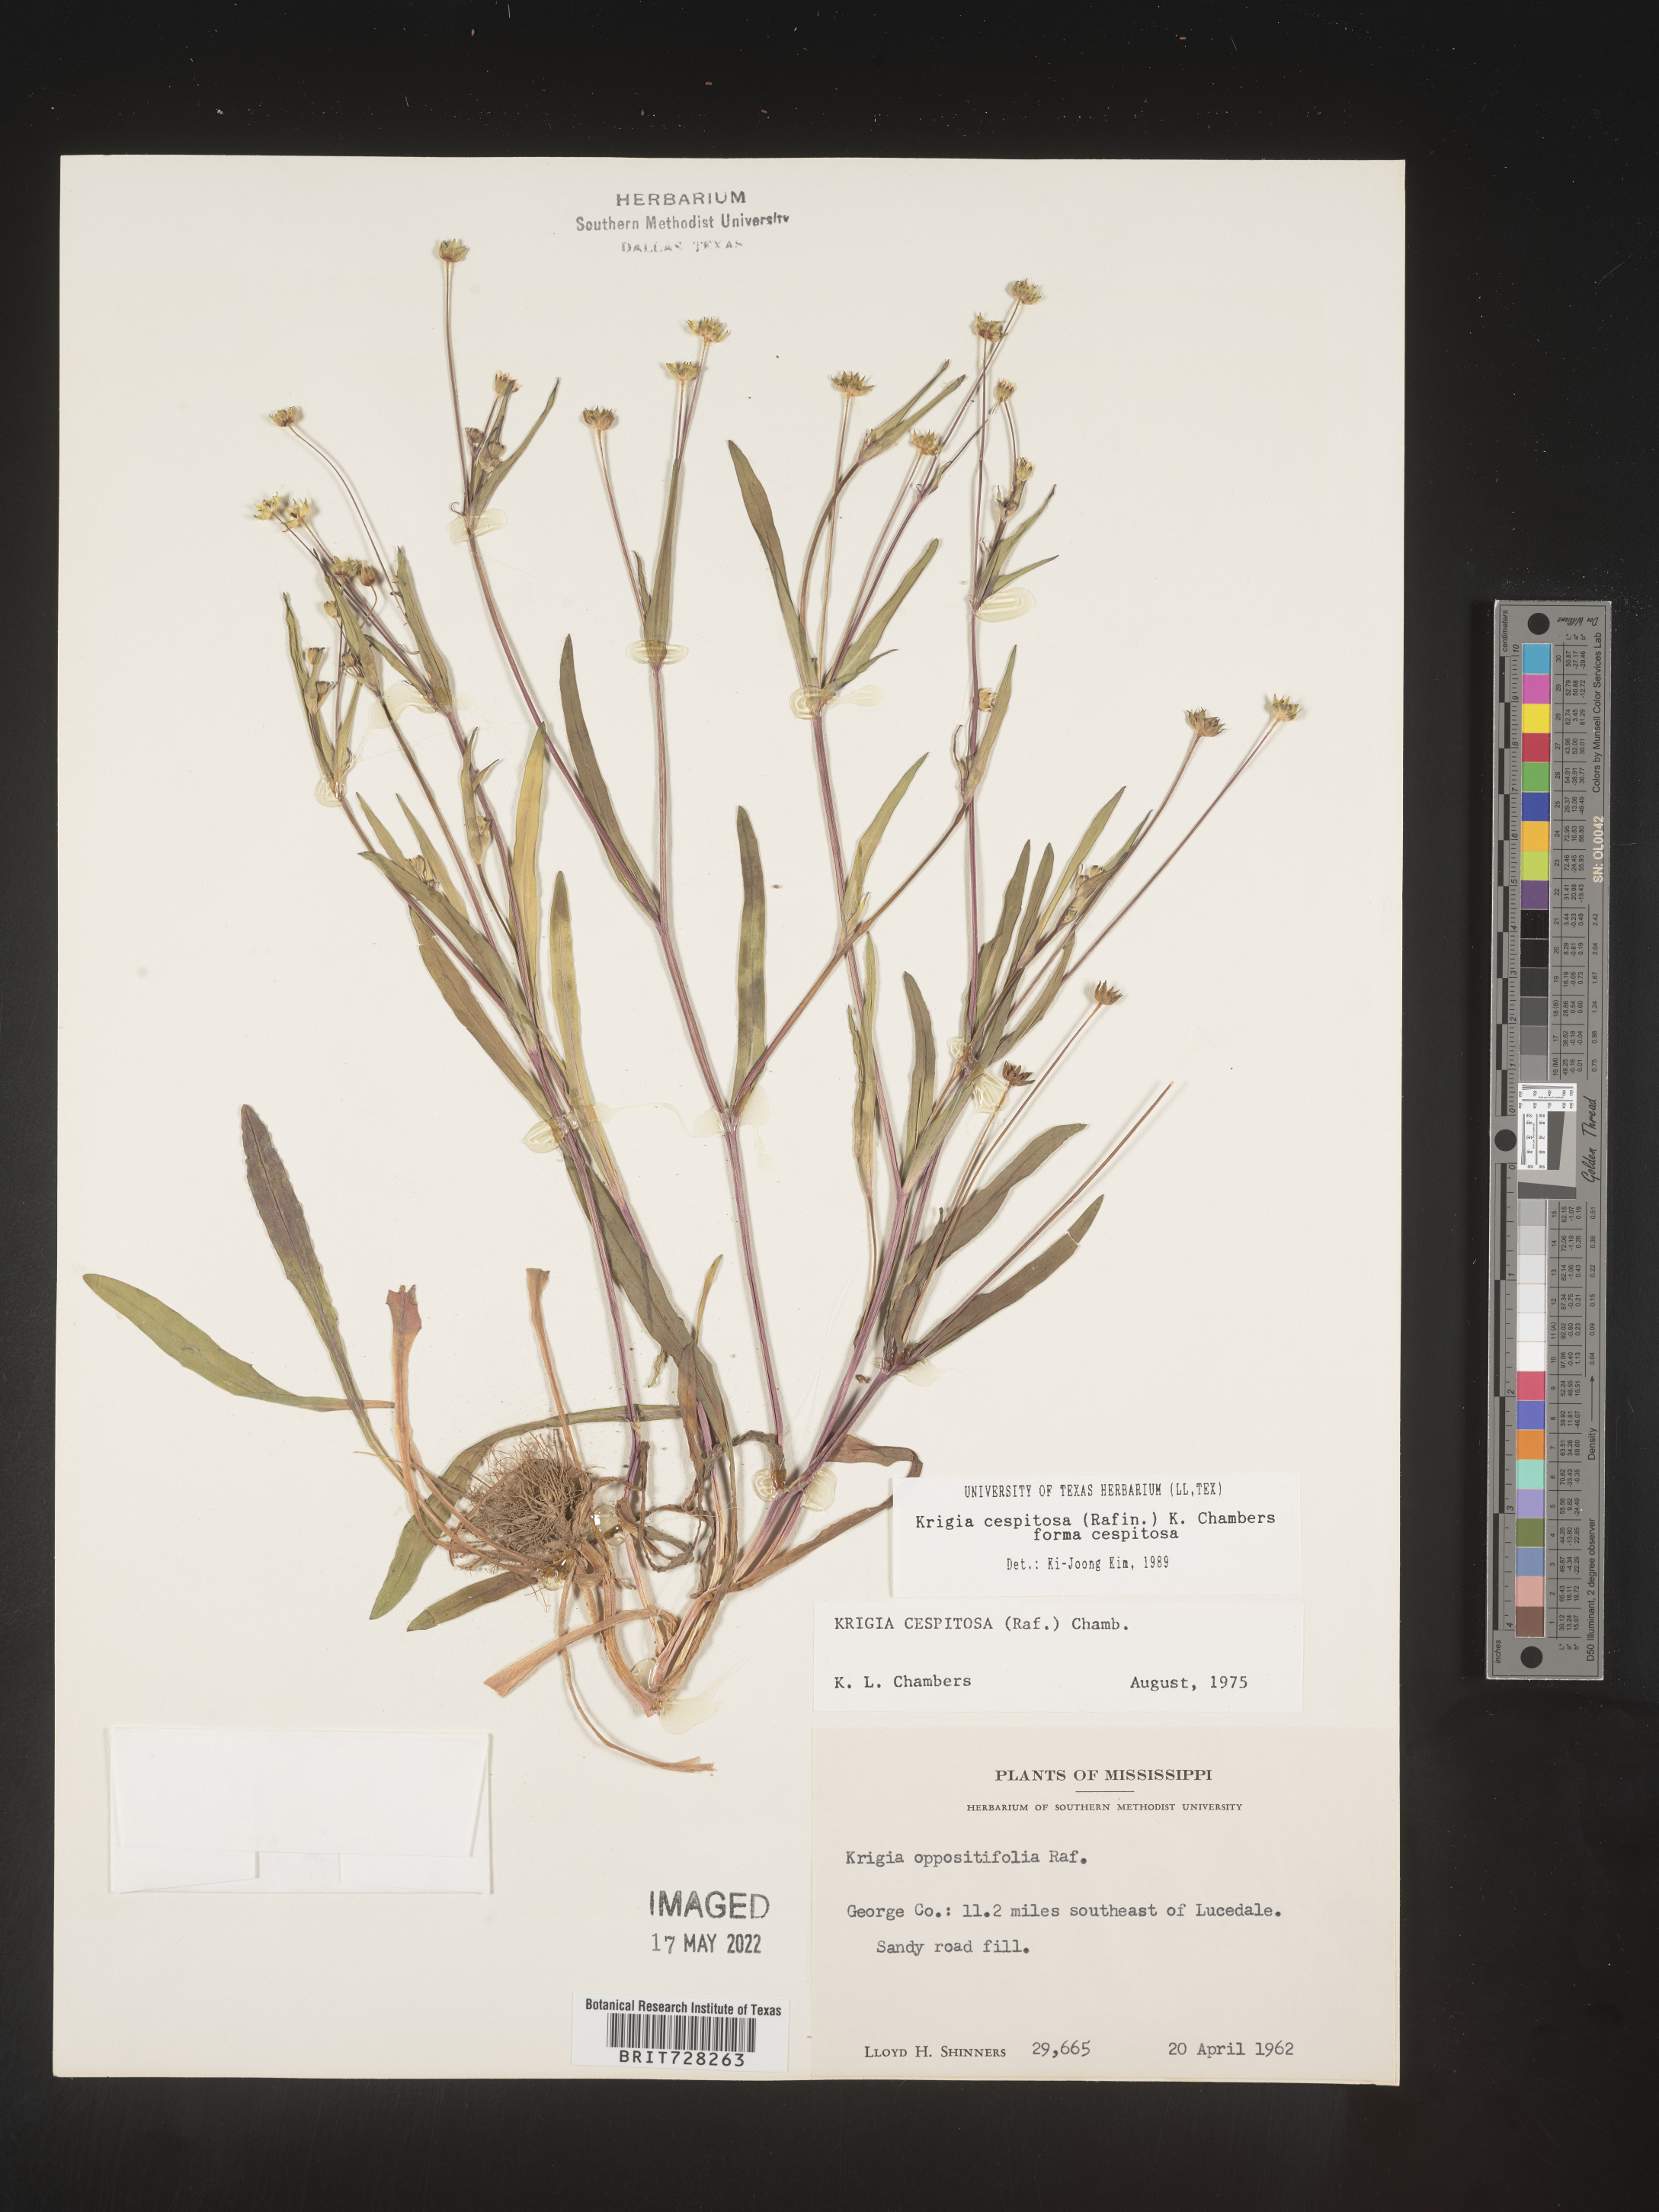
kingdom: Plantae
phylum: Tracheophyta
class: Magnoliopsida
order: Asterales
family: Asteraceae
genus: Krigia
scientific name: Krigia caespitosa
